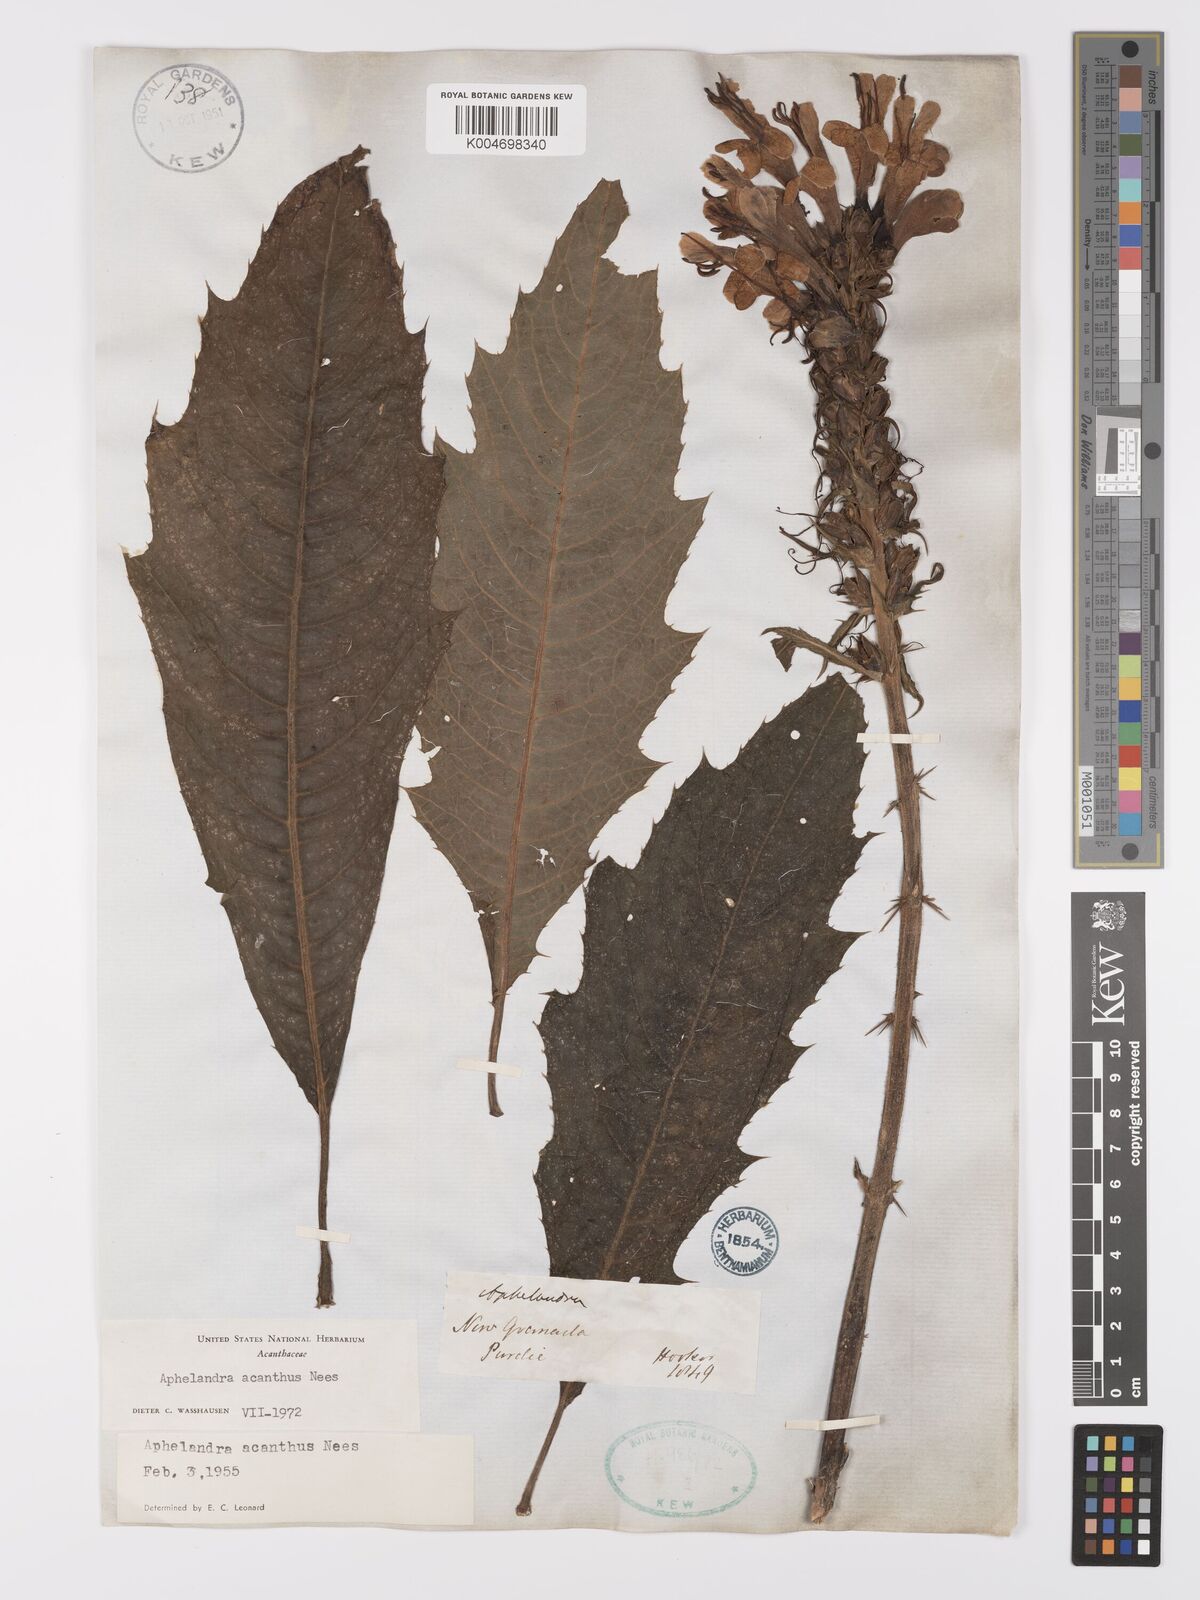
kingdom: Plantae
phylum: Tracheophyta
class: Magnoliopsida
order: Lamiales
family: Acanthaceae
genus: Aphelandra
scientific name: Aphelandra runcinata
